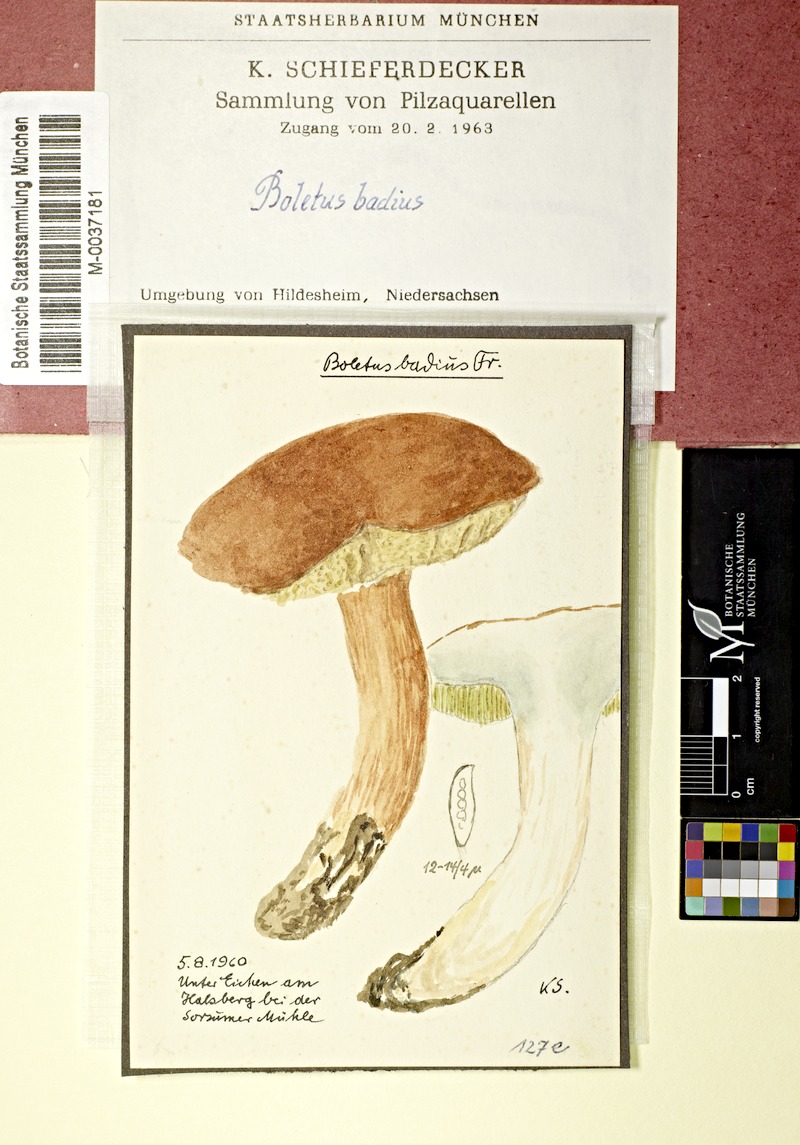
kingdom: Fungi
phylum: Basidiomycota
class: Agaricomycetes
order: Boletales
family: Boletaceae
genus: Imleria
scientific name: Imleria badia
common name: Bay bolete
